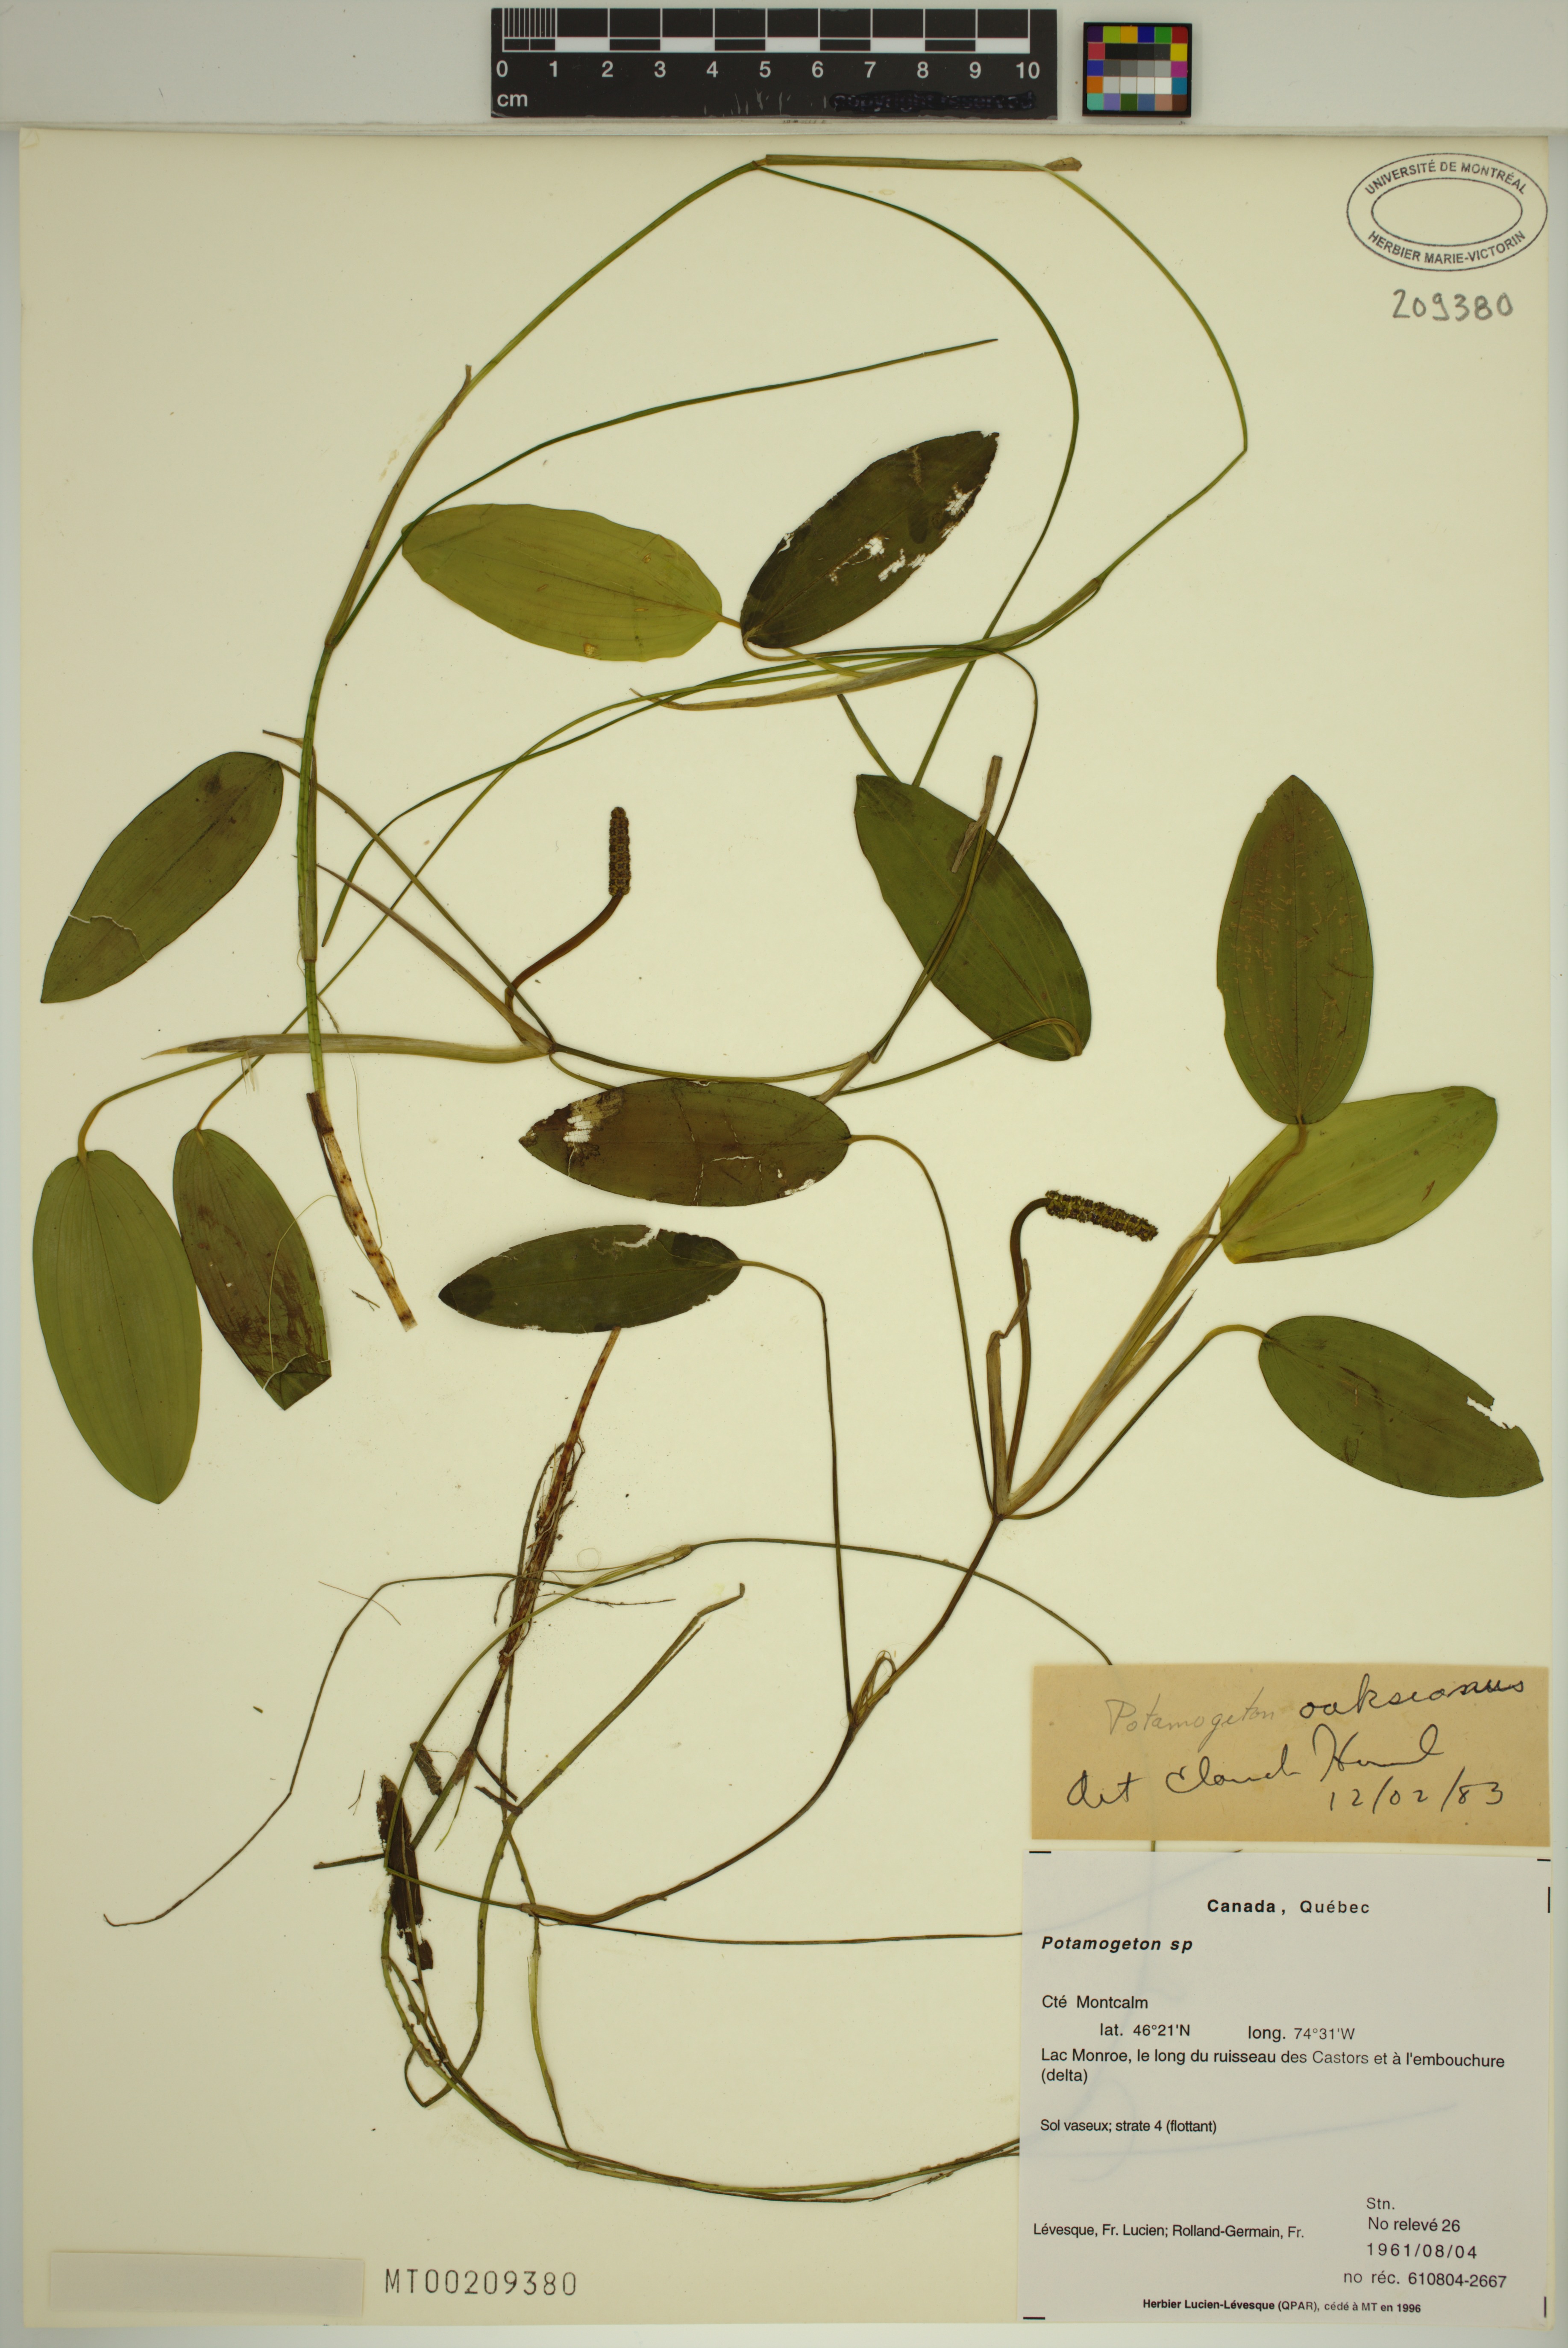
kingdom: Plantae
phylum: Tracheophyta
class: Liliopsida
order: Alismatales
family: Potamogetonaceae
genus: Potamogeton
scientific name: Potamogeton oakesianus
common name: Oakes' pondweed
